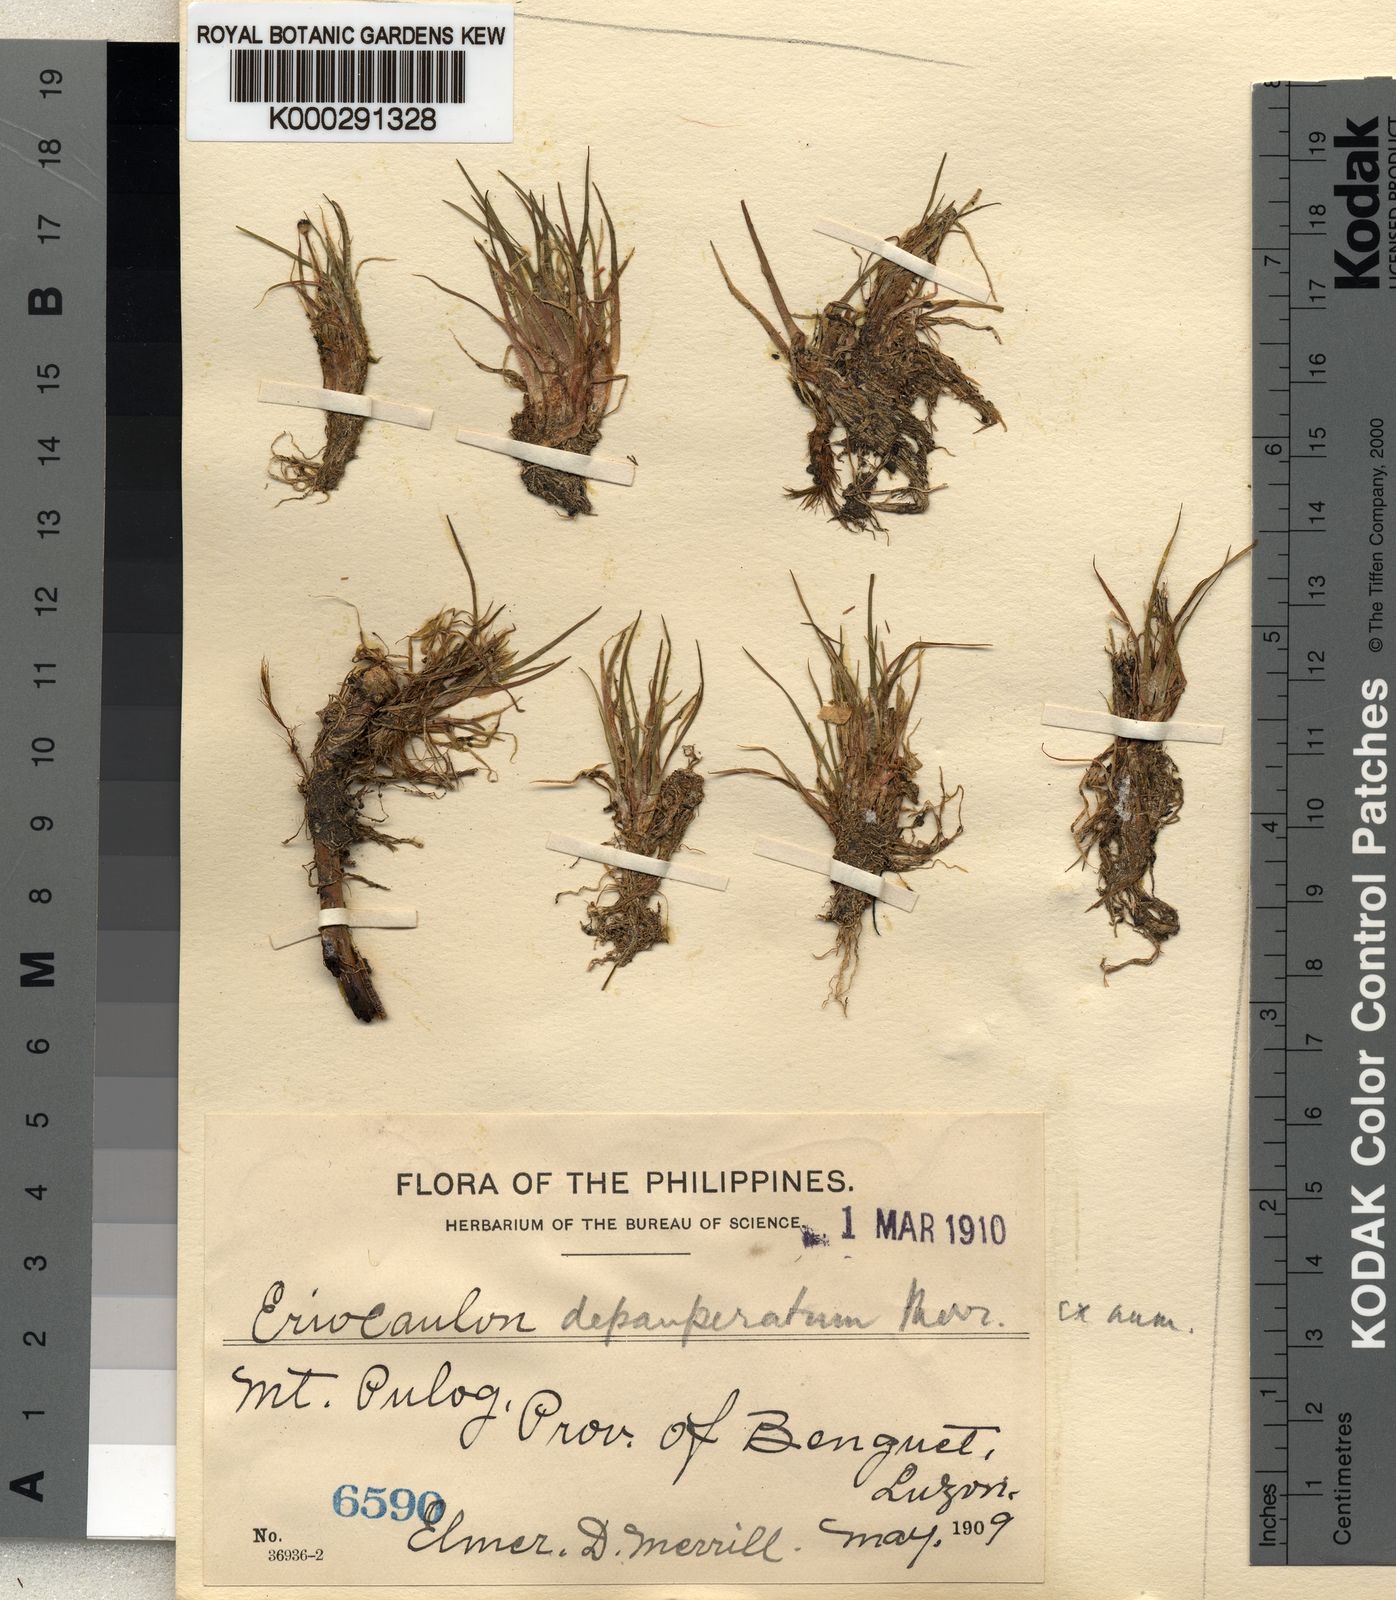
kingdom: Plantae
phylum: Tracheophyta
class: Liliopsida
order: Poales
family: Eriocaulaceae
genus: Eriocaulon
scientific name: Eriocaulon depauperatum
